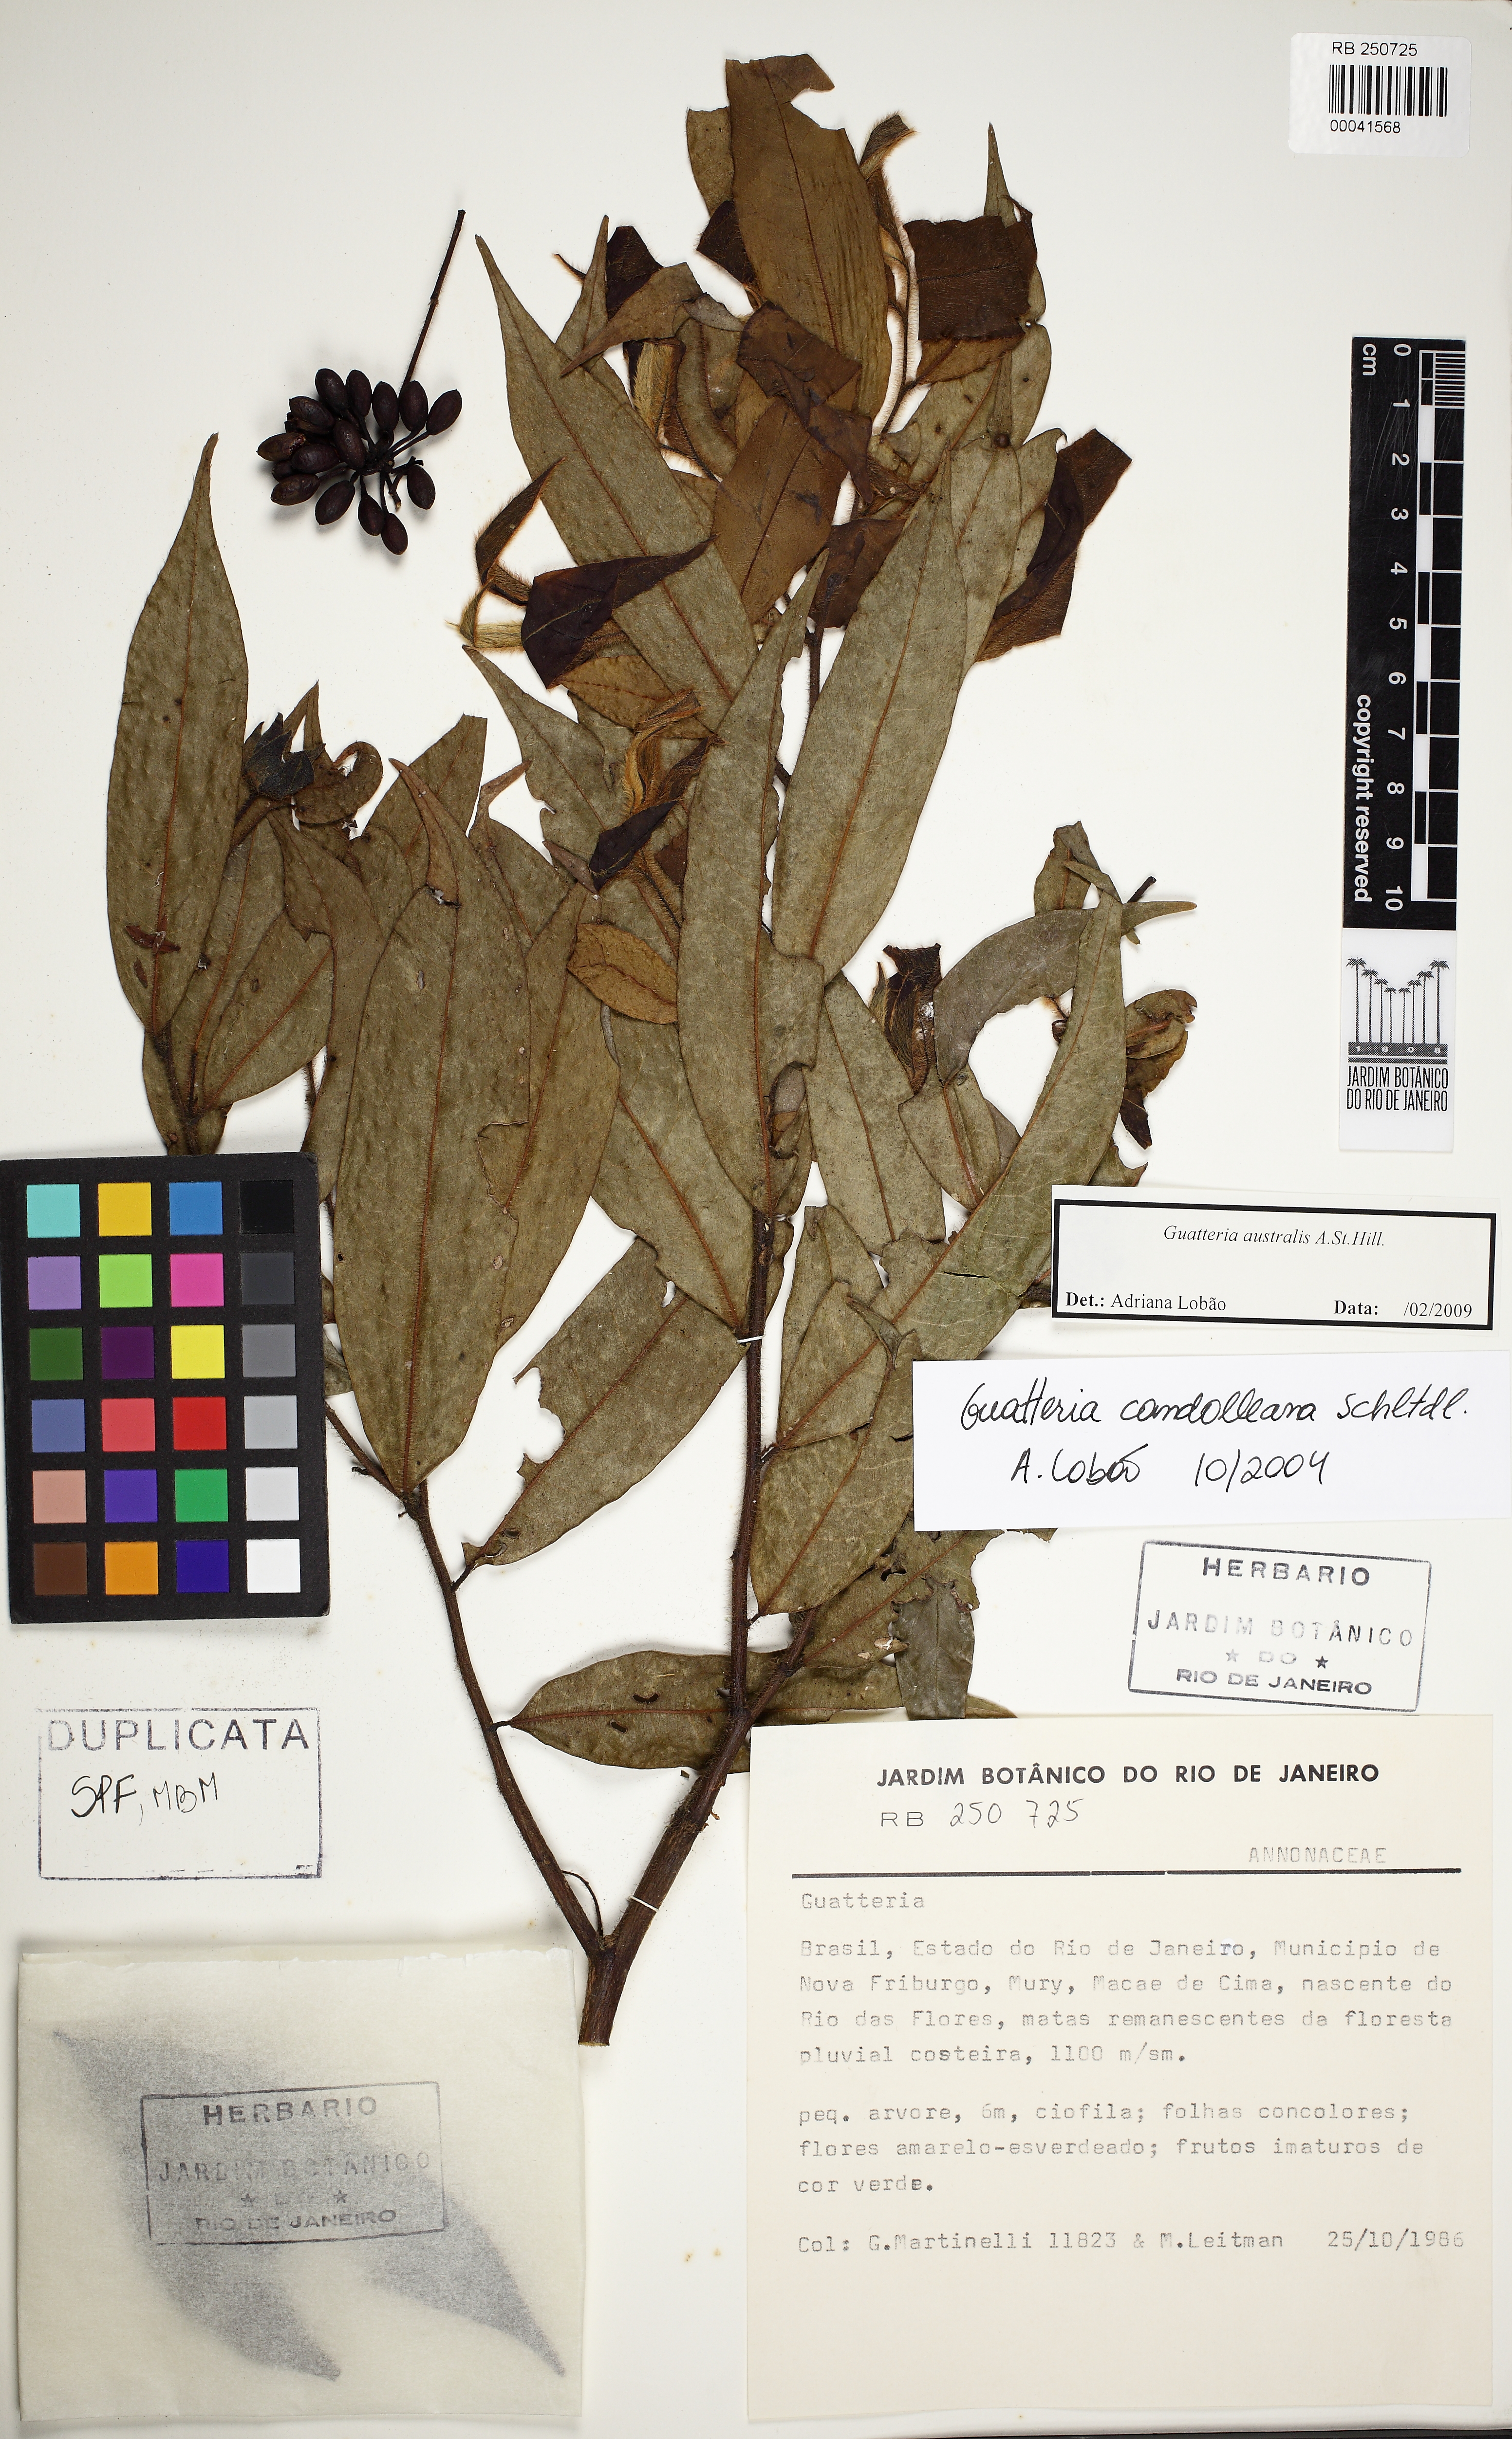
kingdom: Plantae
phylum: Tracheophyta
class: Magnoliopsida
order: Magnoliales
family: Annonaceae
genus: Guatteria
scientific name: Guatteria australis
